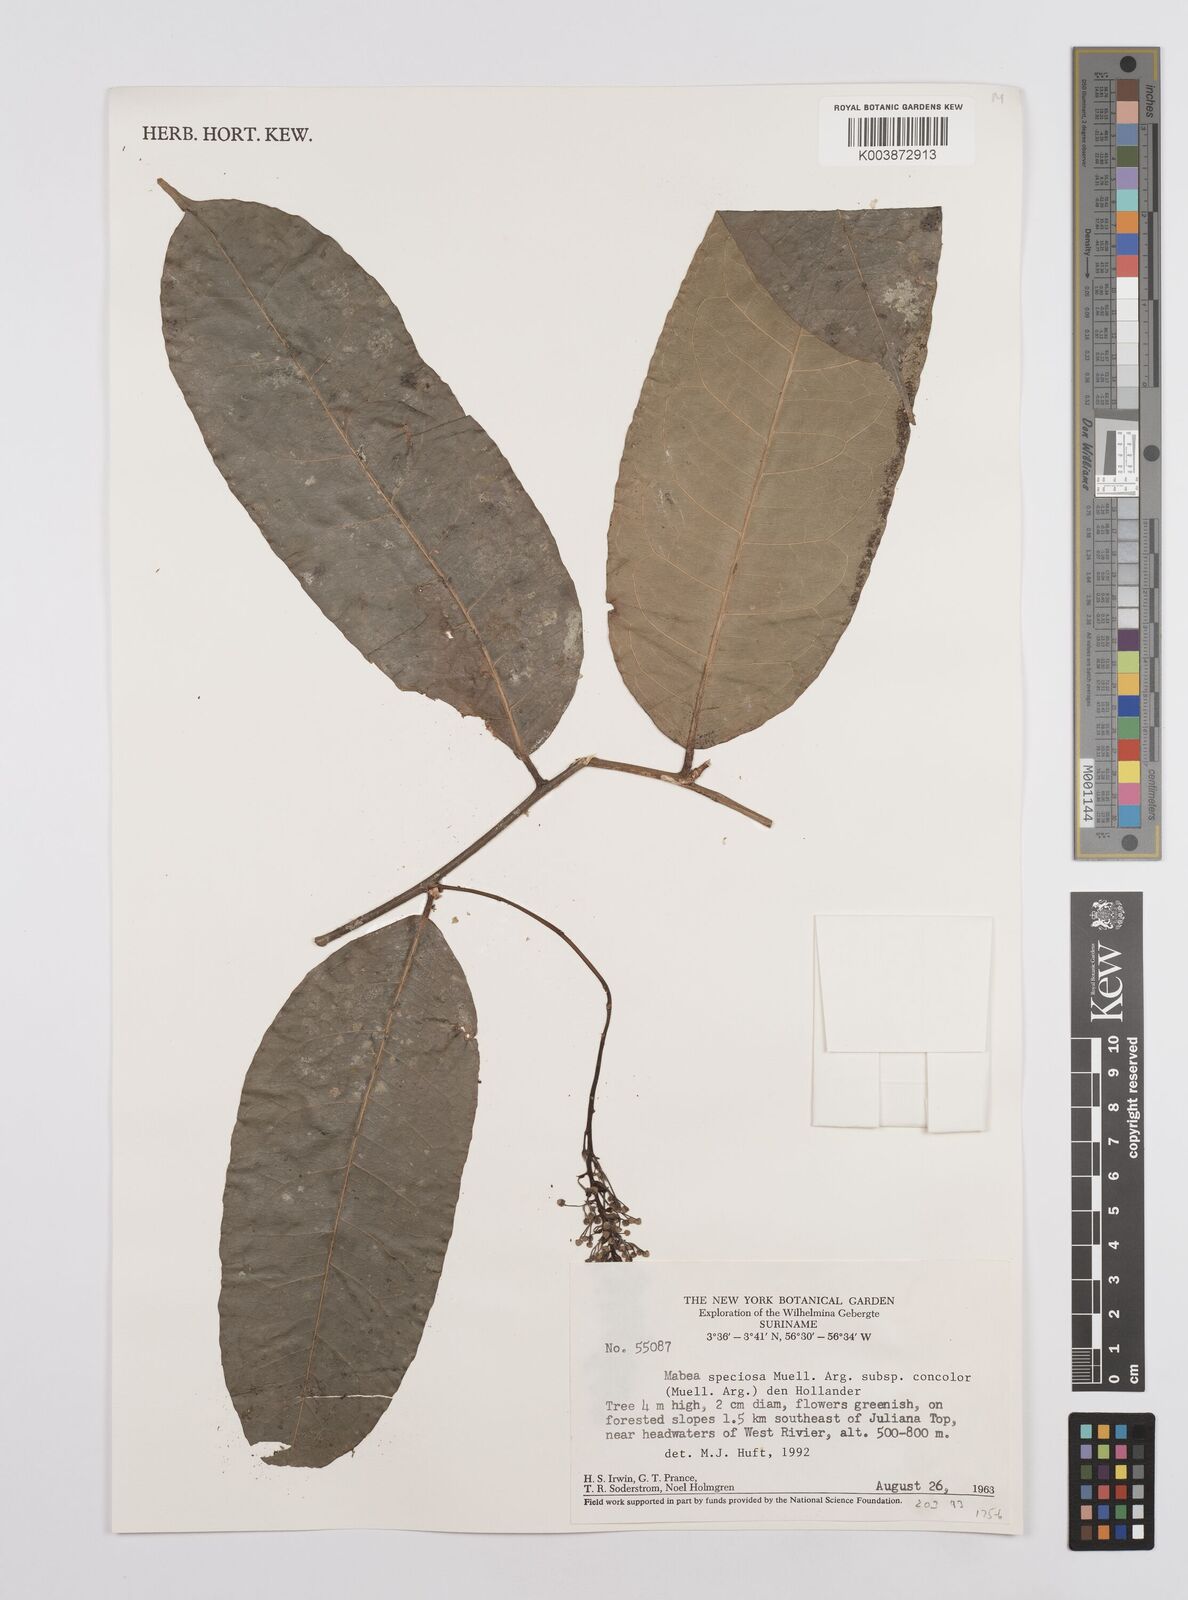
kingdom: Plantae
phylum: Tracheophyta
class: Magnoliopsida
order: Malpighiales
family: Euphorbiaceae
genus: Mabea
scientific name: Mabea piriri
